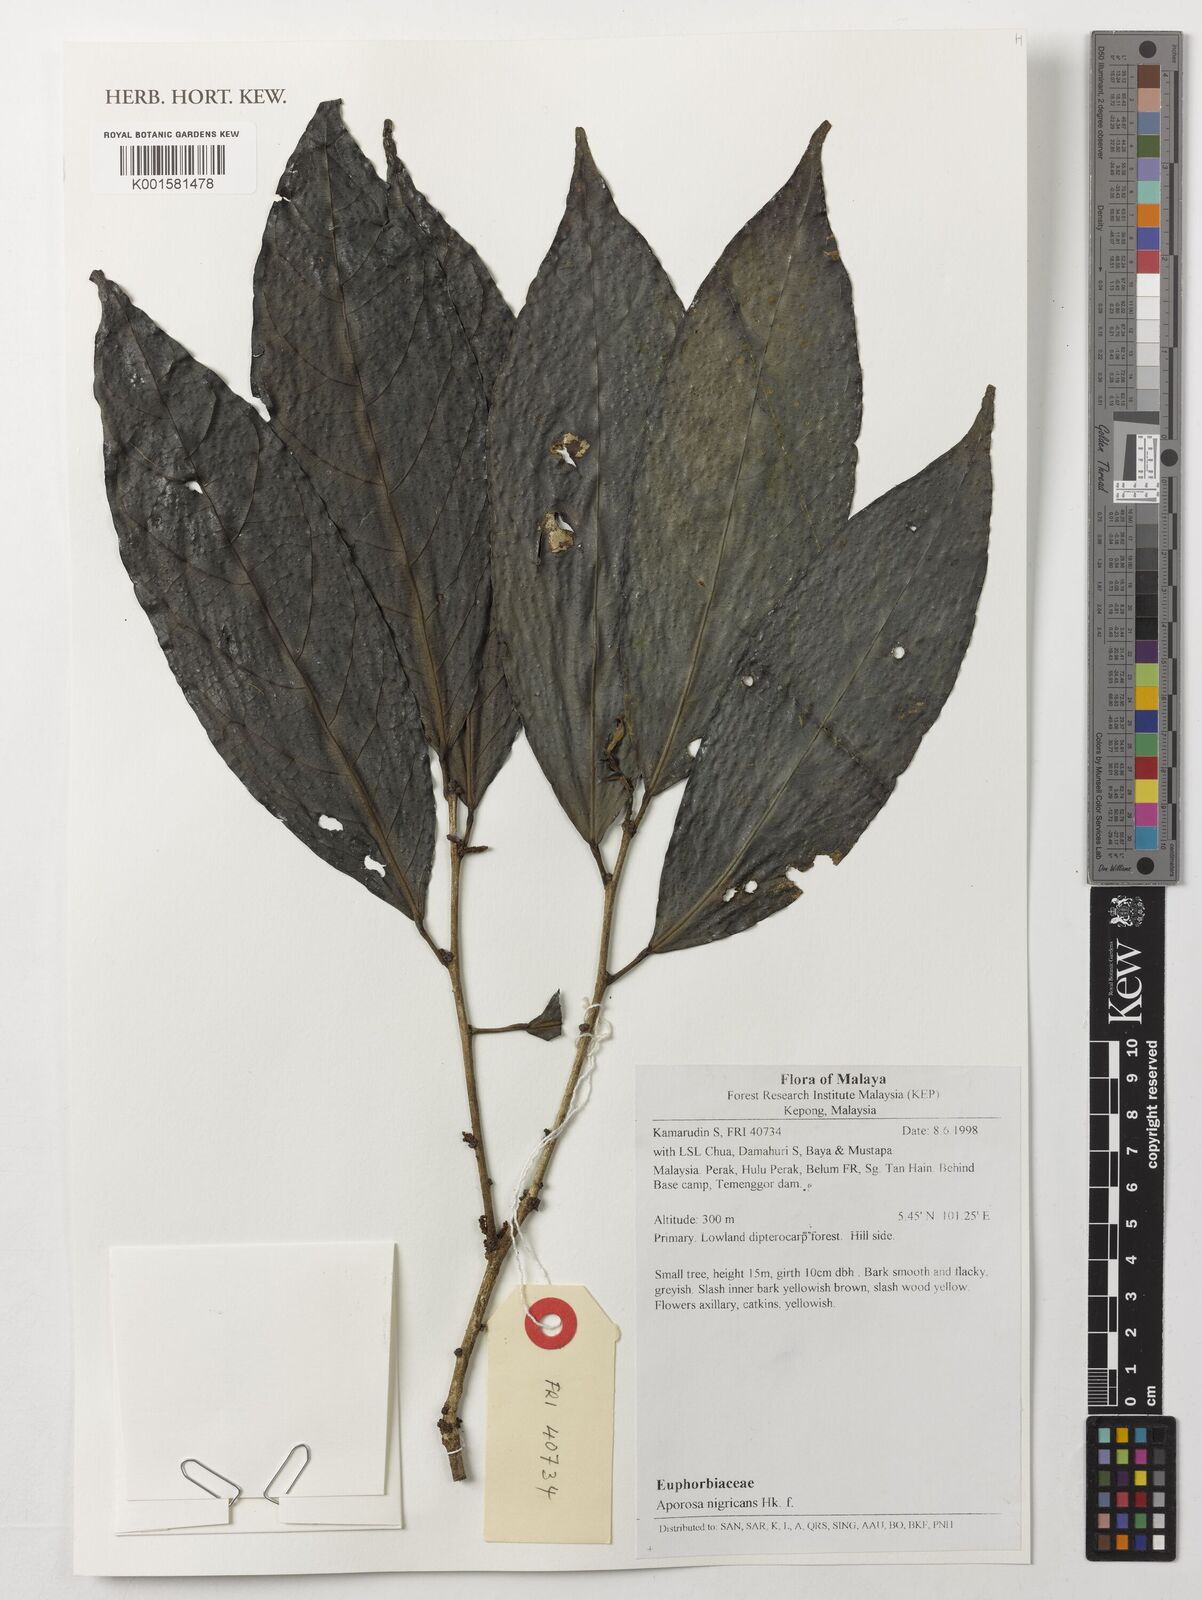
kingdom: Plantae
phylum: Tracheophyta
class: Magnoliopsida
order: Malpighiales
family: Phyllanthaceae
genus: Aporosa
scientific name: Aporosa nigricans
